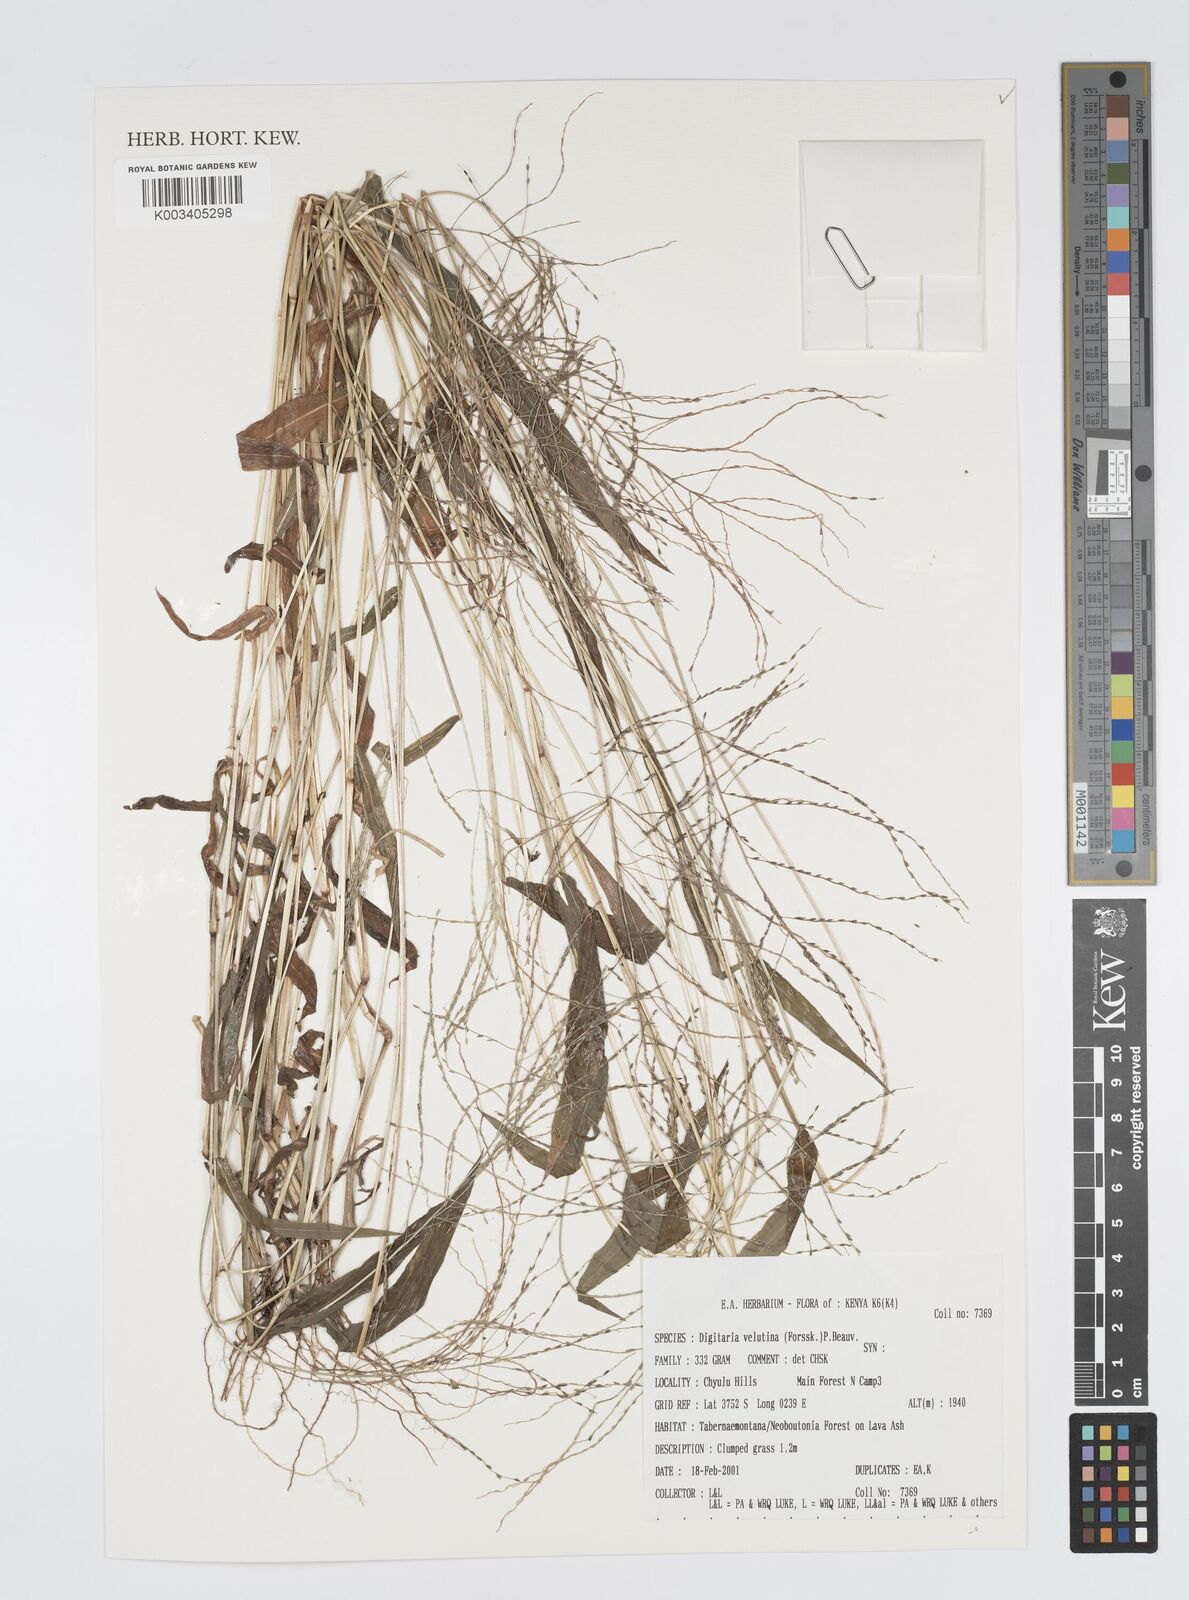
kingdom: Plantae
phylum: Tracheophyta
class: Liliopsida
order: Poales
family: Poaceae
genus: Digitaria
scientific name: Digitaria velutina
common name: Long-plume finger grass
